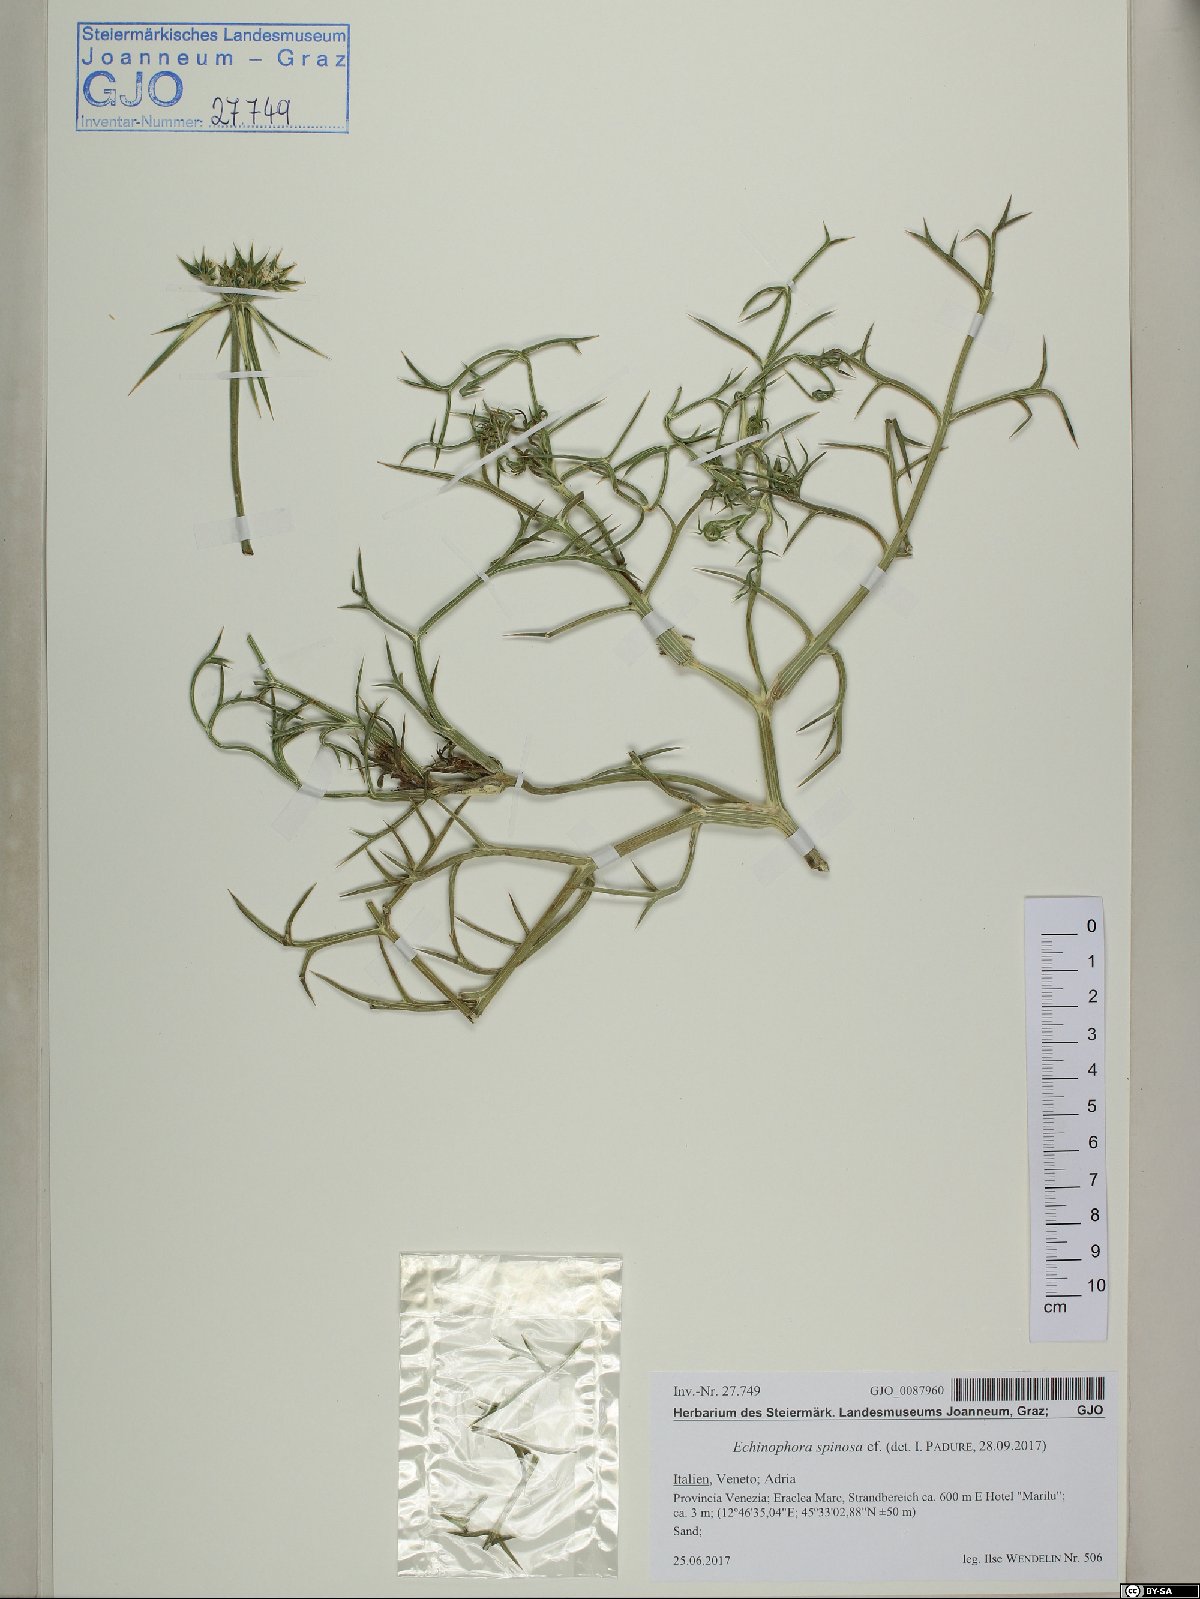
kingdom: Plantae
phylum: Tracheophyta
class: Magnoliopsida
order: Apiales
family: Apiaceae
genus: Echinophora
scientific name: Echinophora spinosa
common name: Prickly samphire
